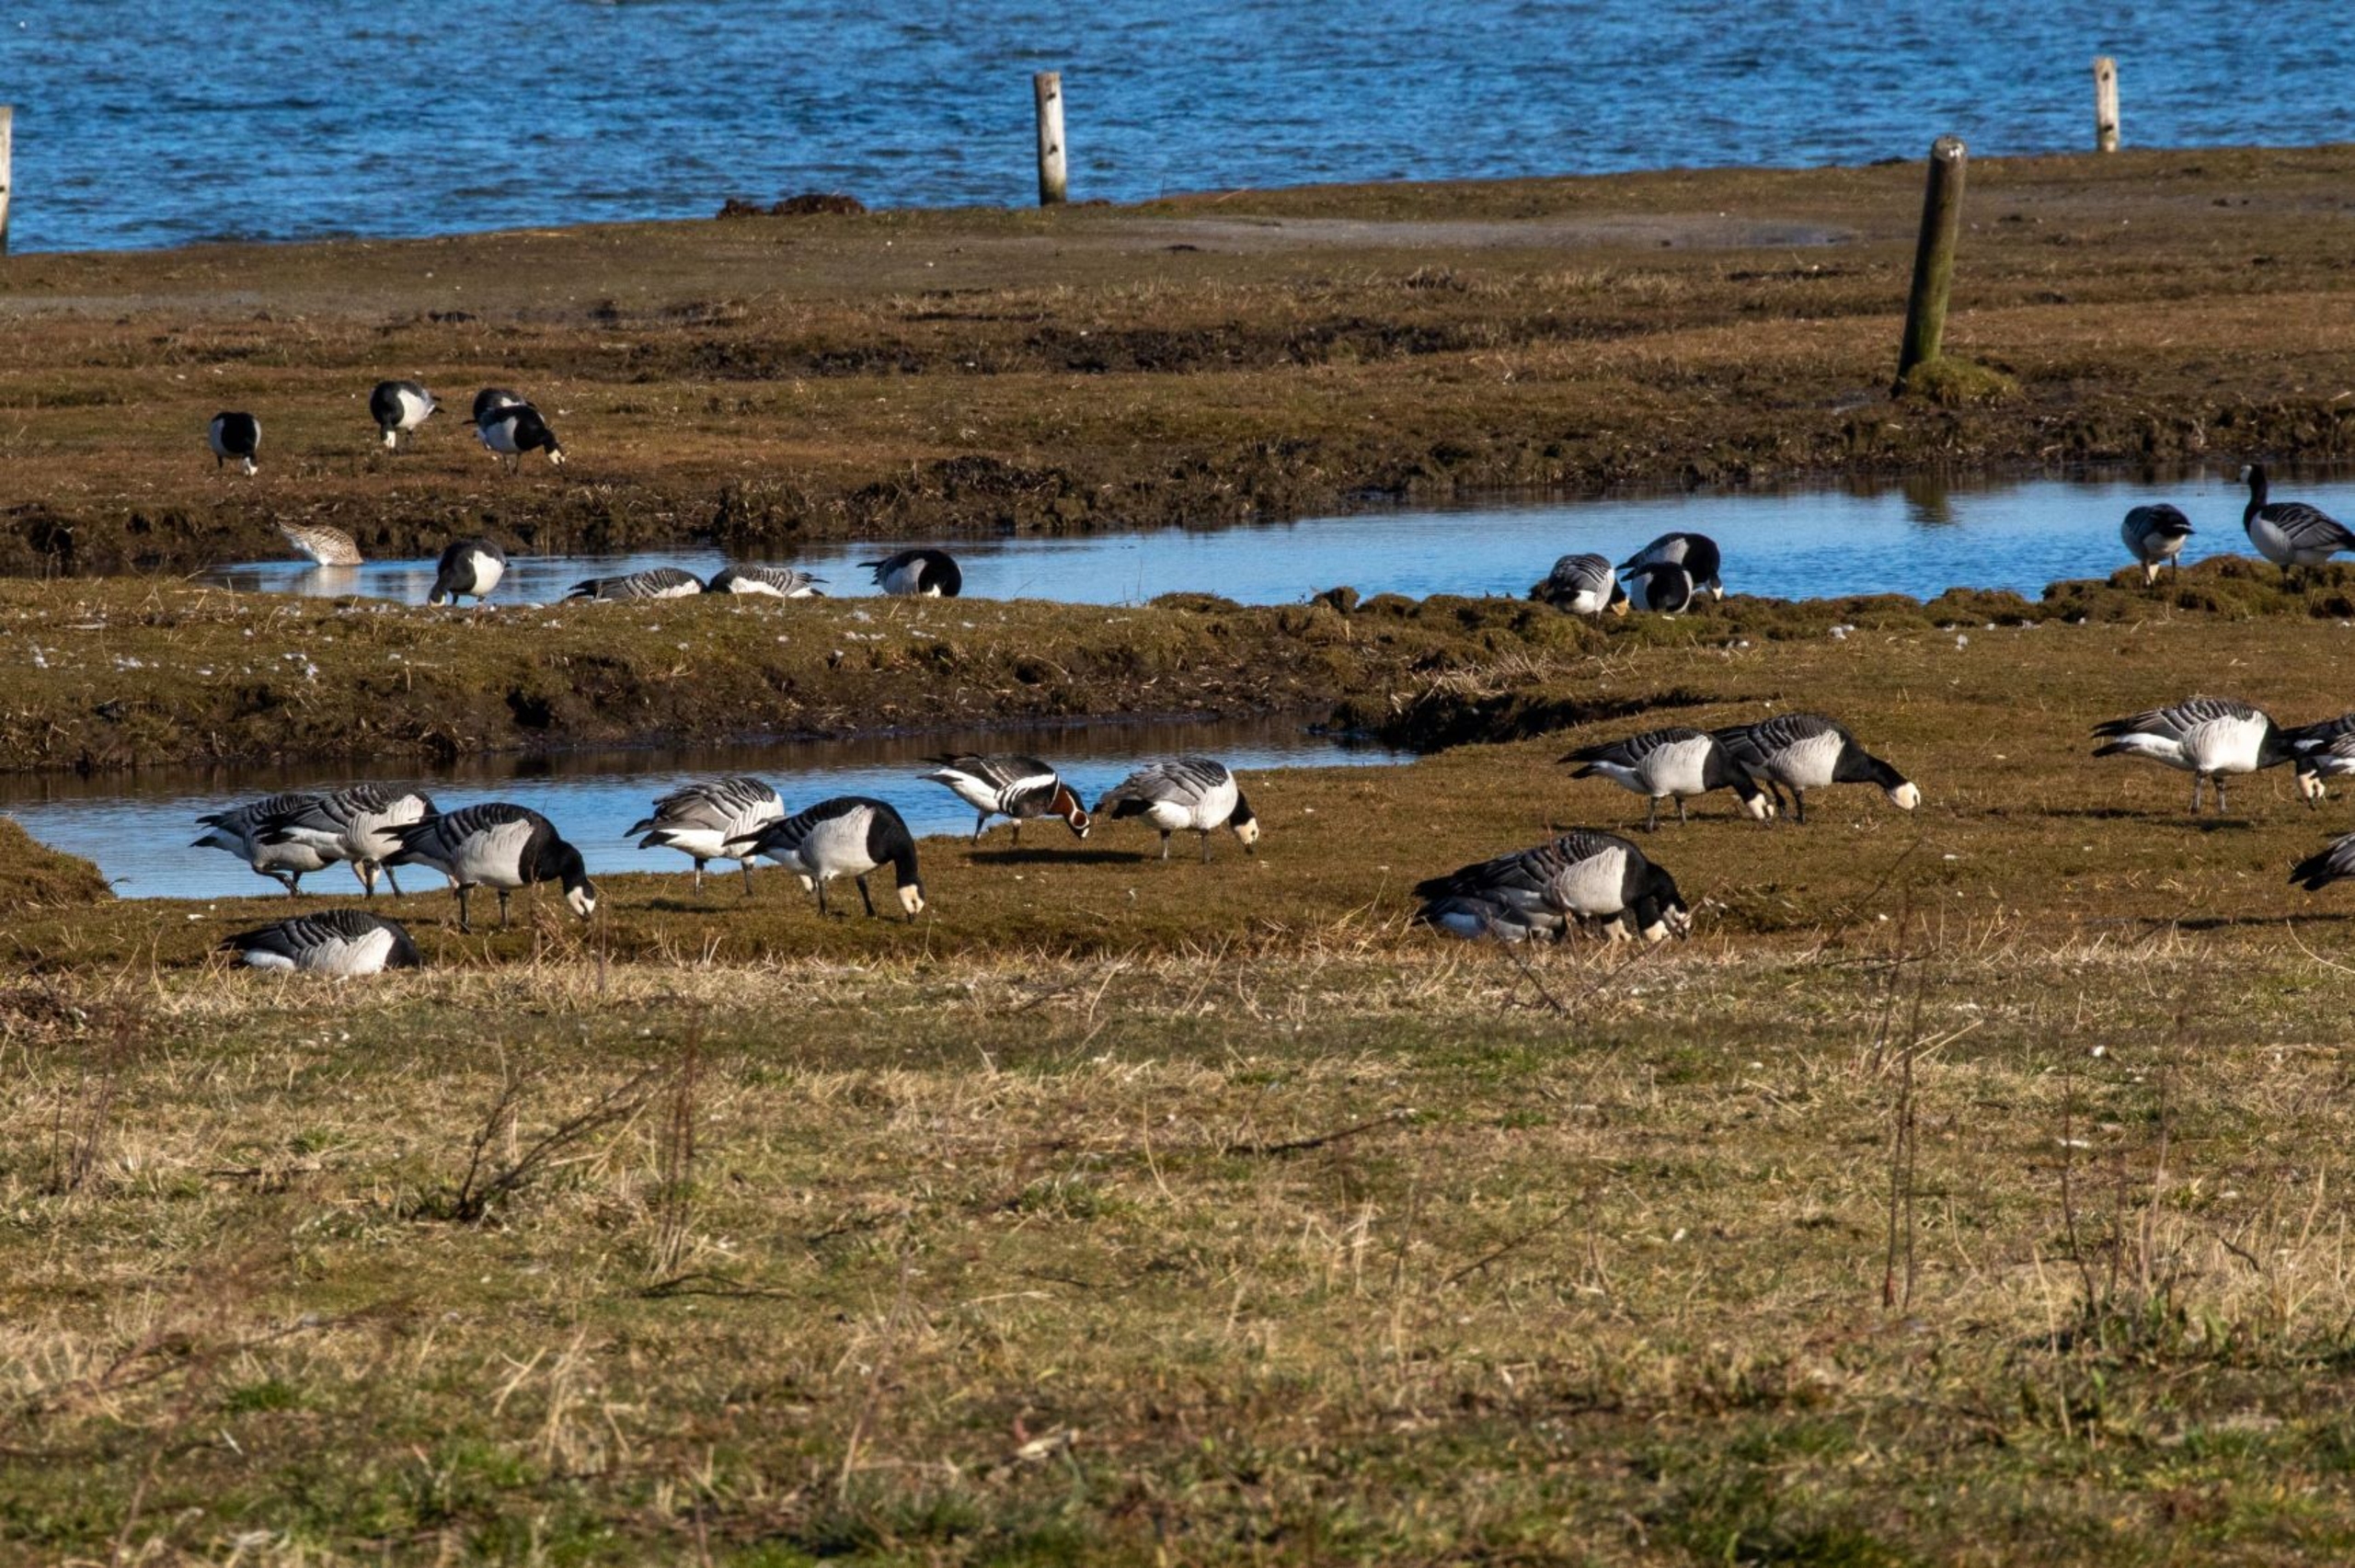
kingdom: Animalia
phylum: Chordata
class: Aves
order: Anseriformes
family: Anatidae
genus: Branta
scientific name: Branta leucopsis
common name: Bramgås
